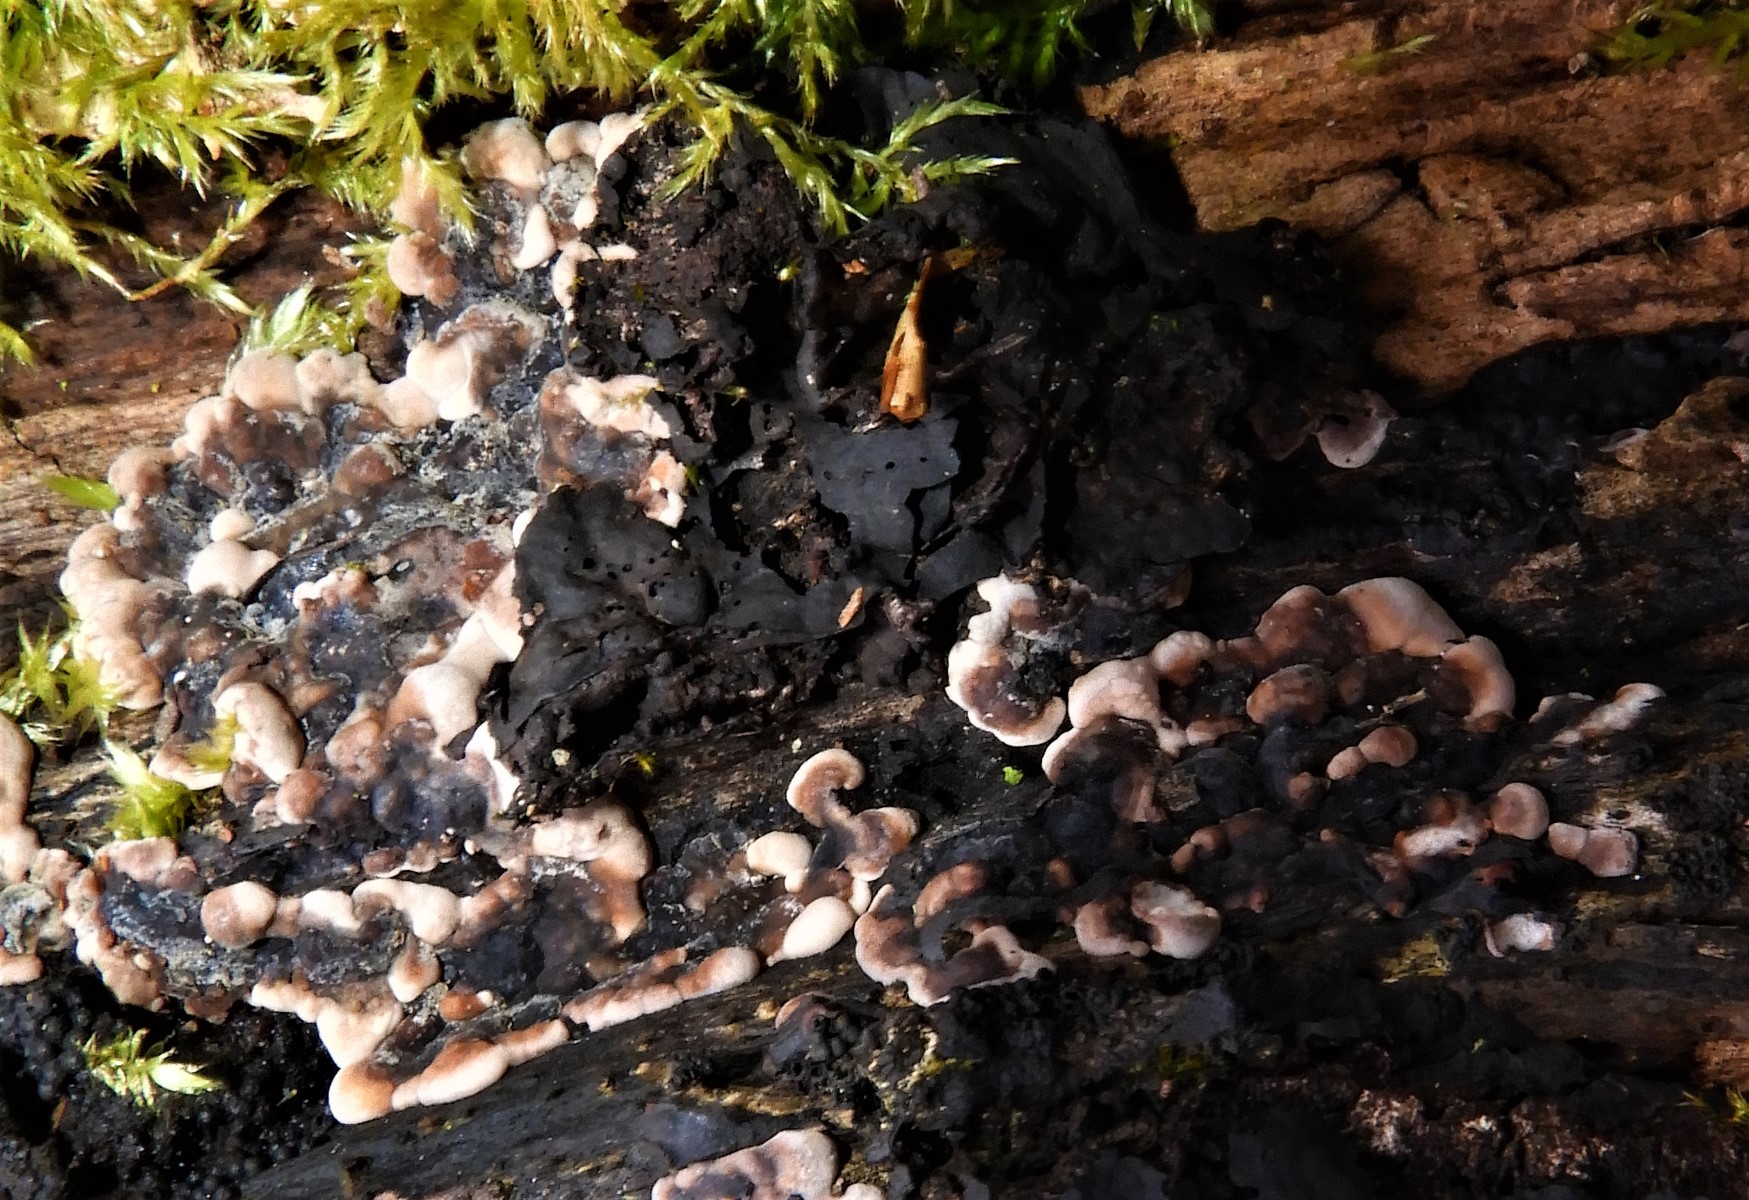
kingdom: Fungi
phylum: Ascomycota
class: Sordariomycetes
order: Xylariales
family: Xylariaceae
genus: Kretzschmaria
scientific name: Kretzschmaria deusta
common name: stor kulsvamp
